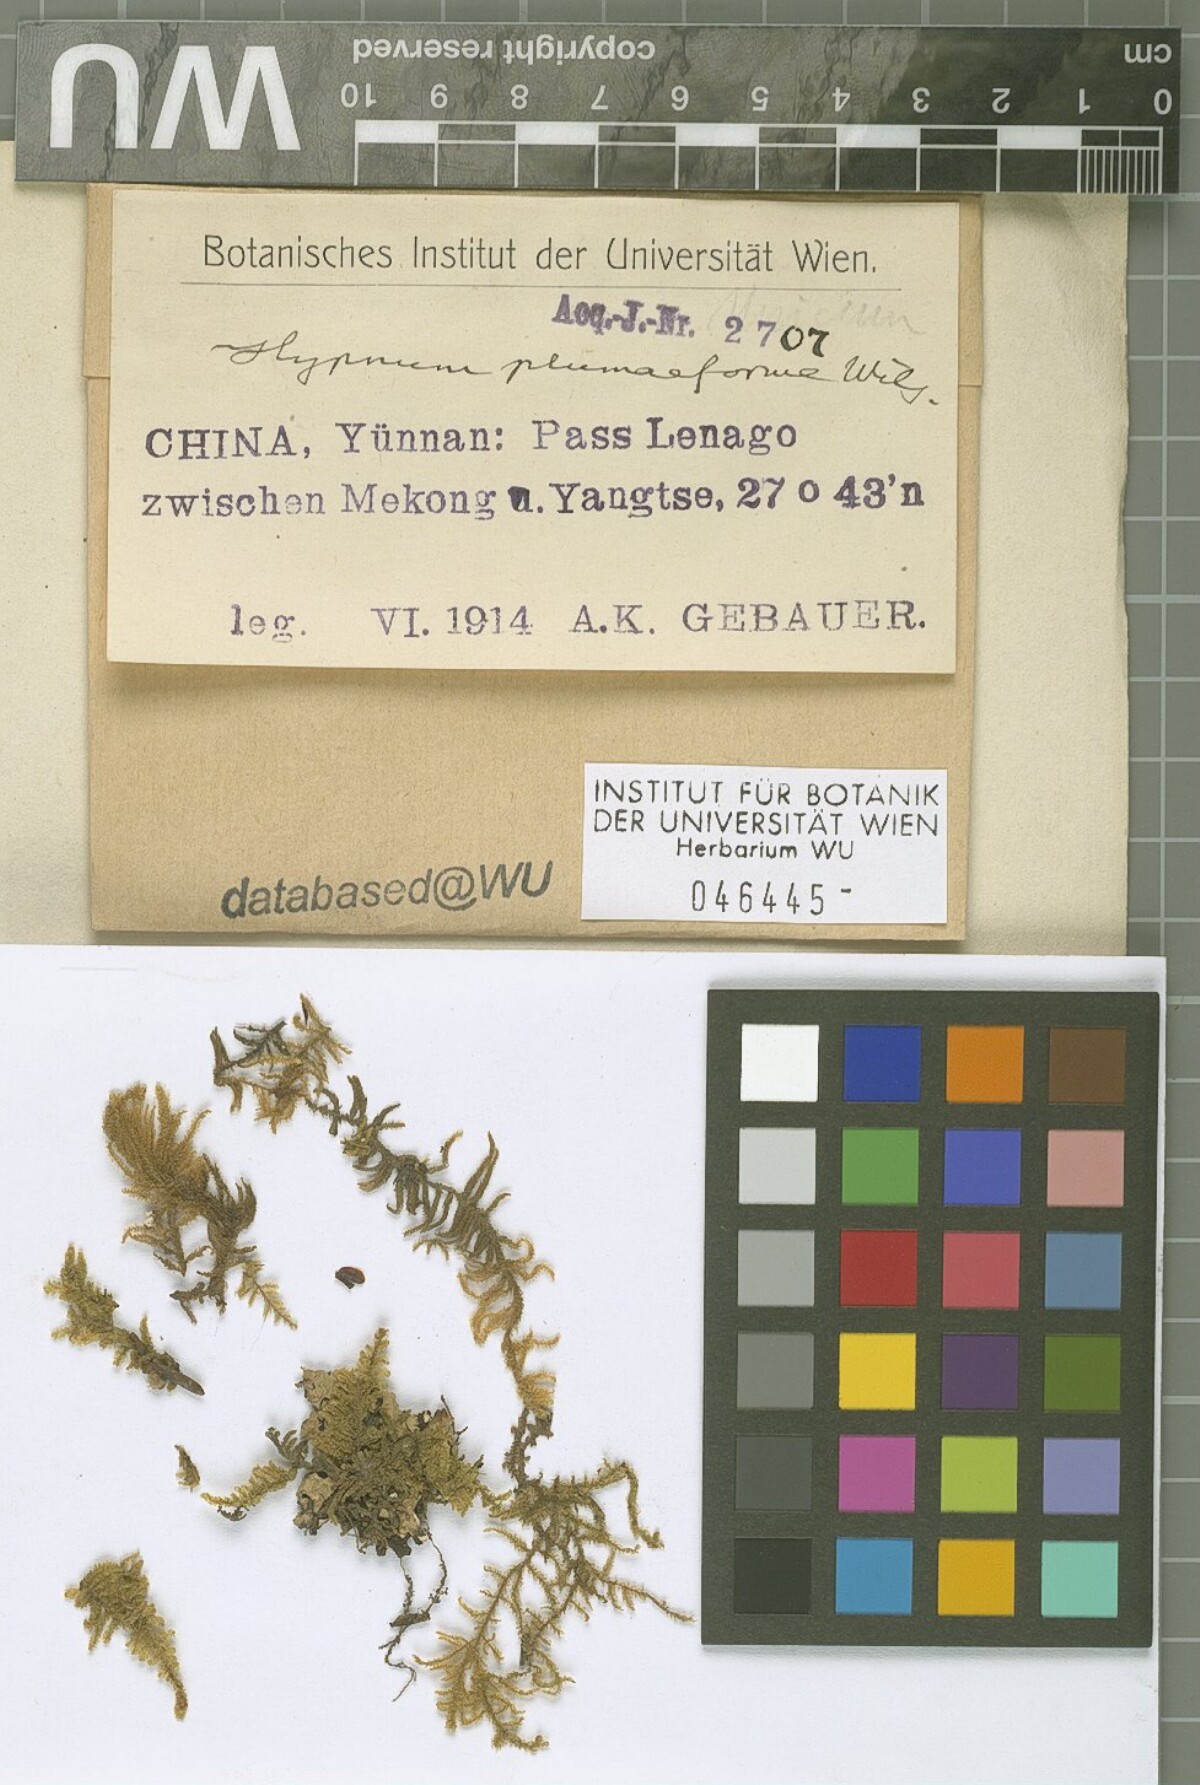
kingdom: Plantae
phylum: Bryophyta
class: Bryopsida
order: Hypnales
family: Hypnaceae
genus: Hypnum
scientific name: Hypnum plumaeforme
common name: Cypress-leaved plaitmoss
